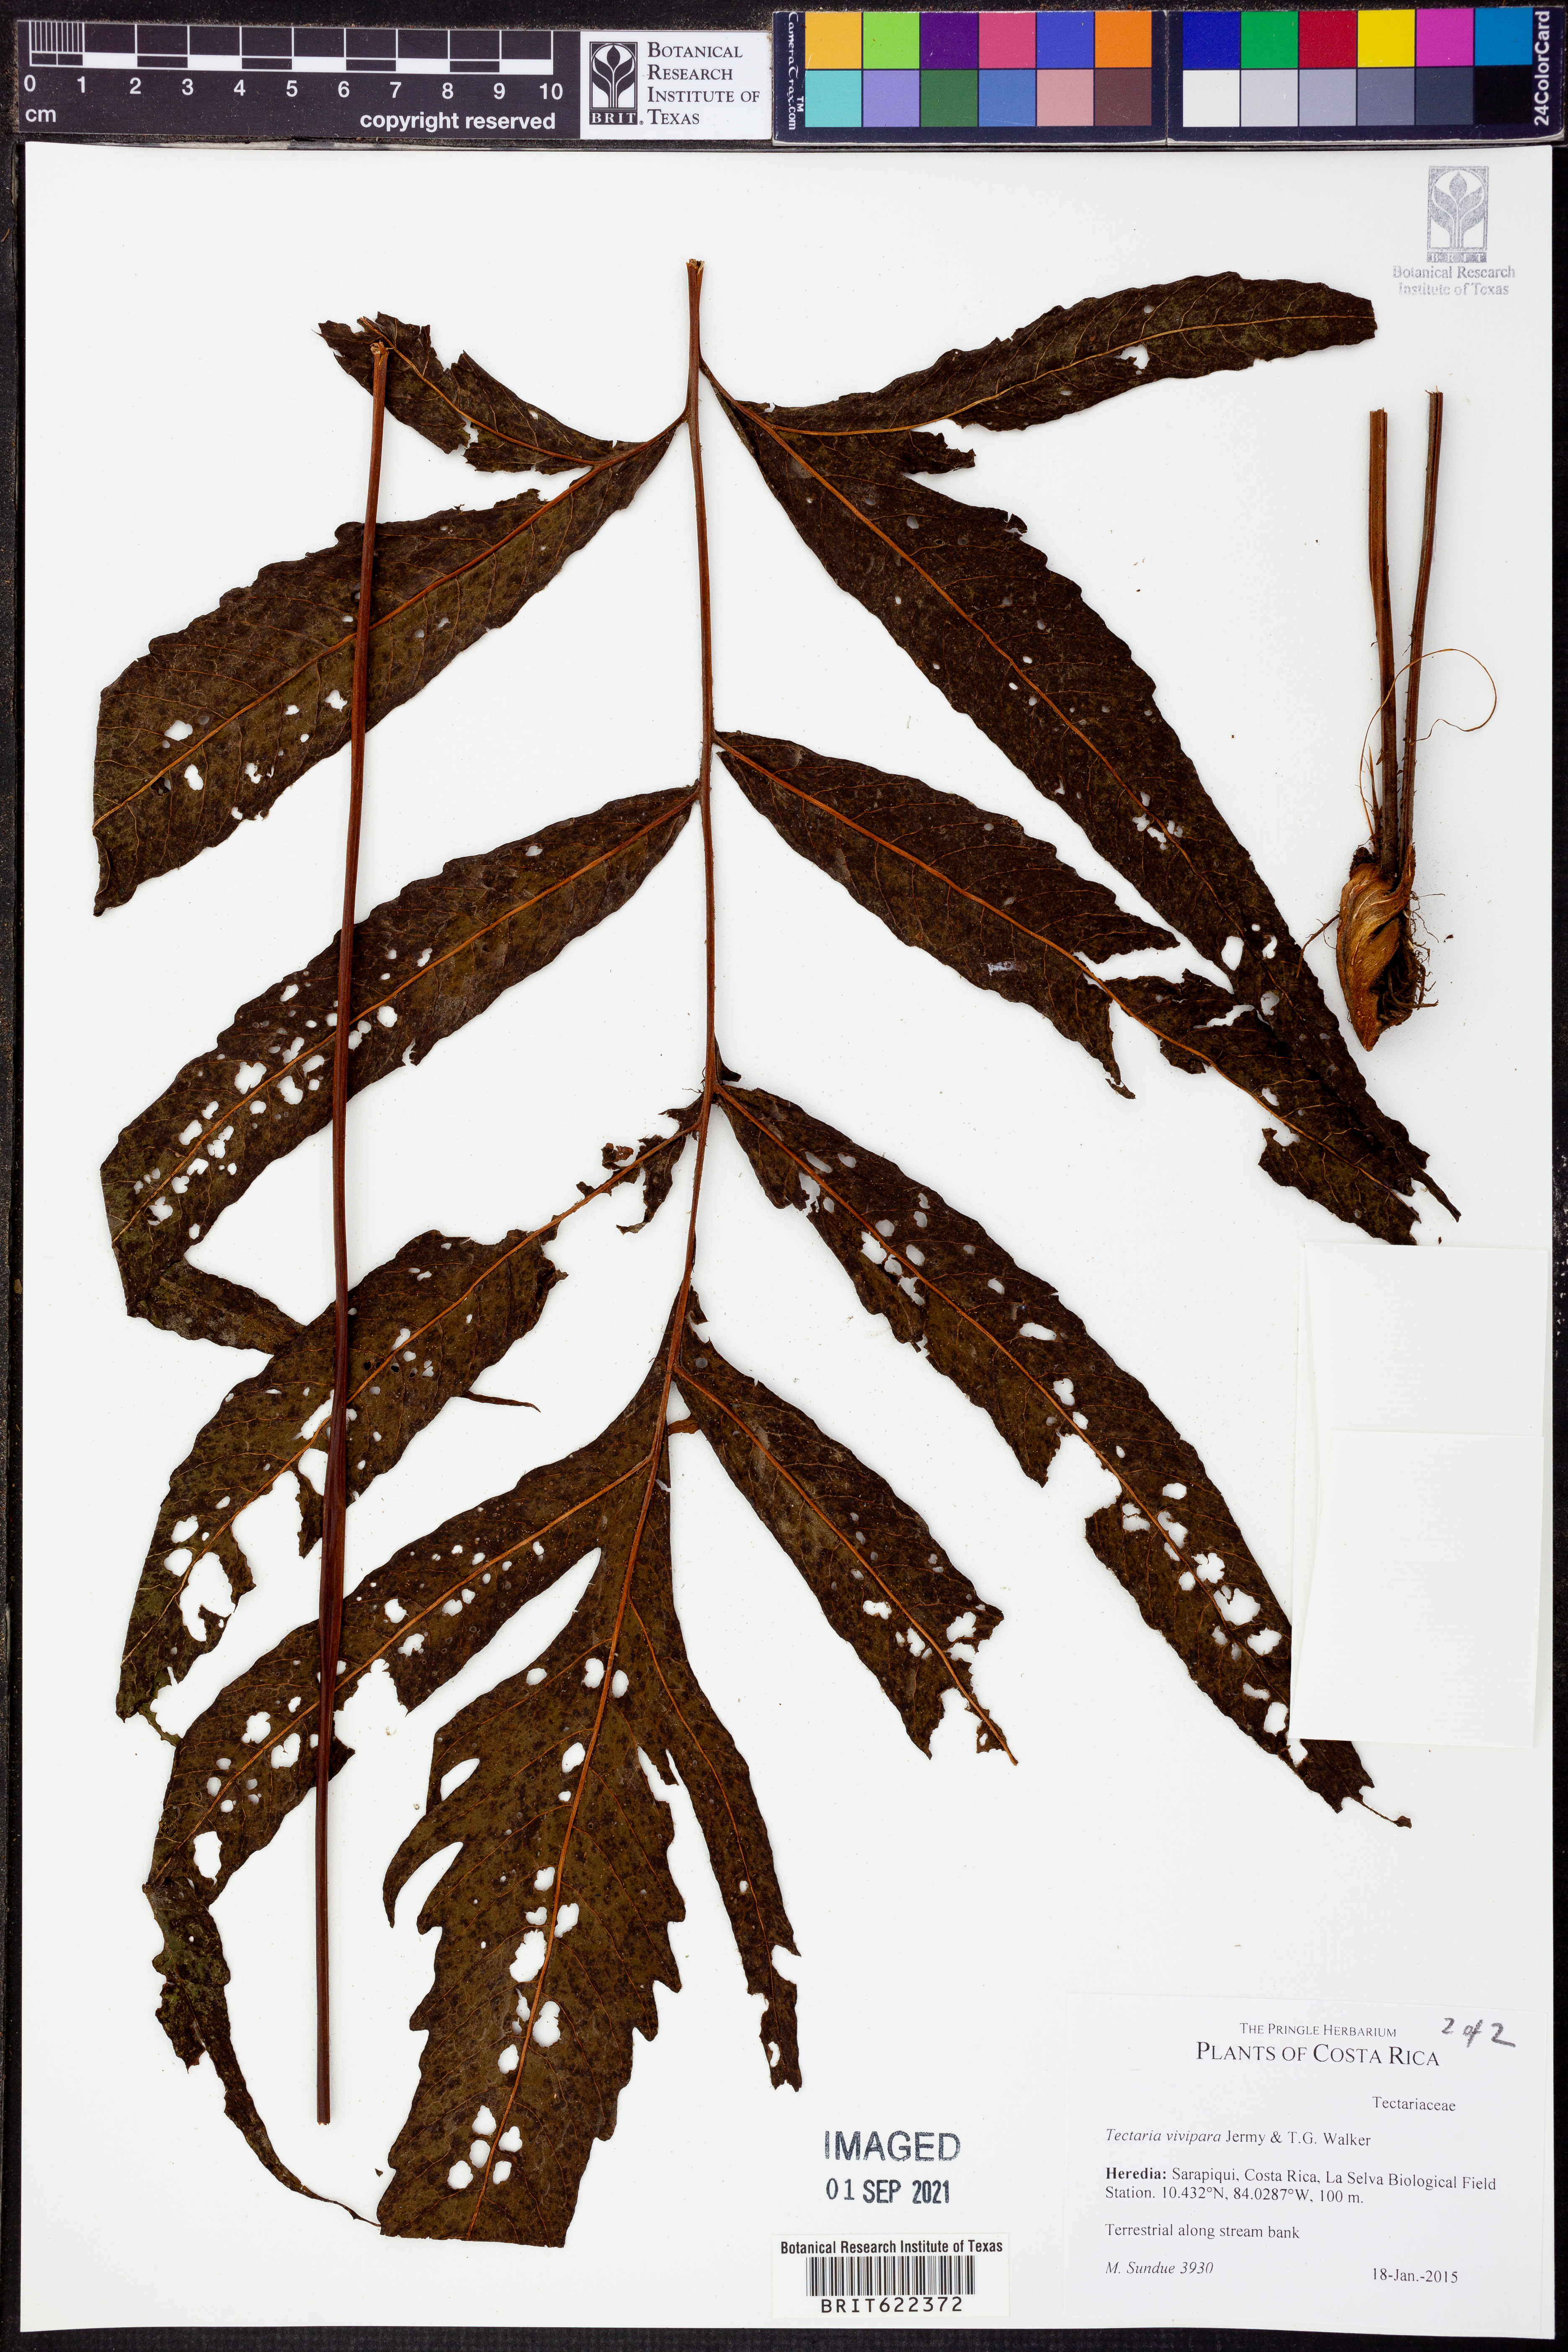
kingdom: Plantae
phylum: Tracheophyta
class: Polypodiopsida
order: Polypodiales
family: Tectariaceae
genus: Tectaria
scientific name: Tectaria incisa
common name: Incised halberd fern
